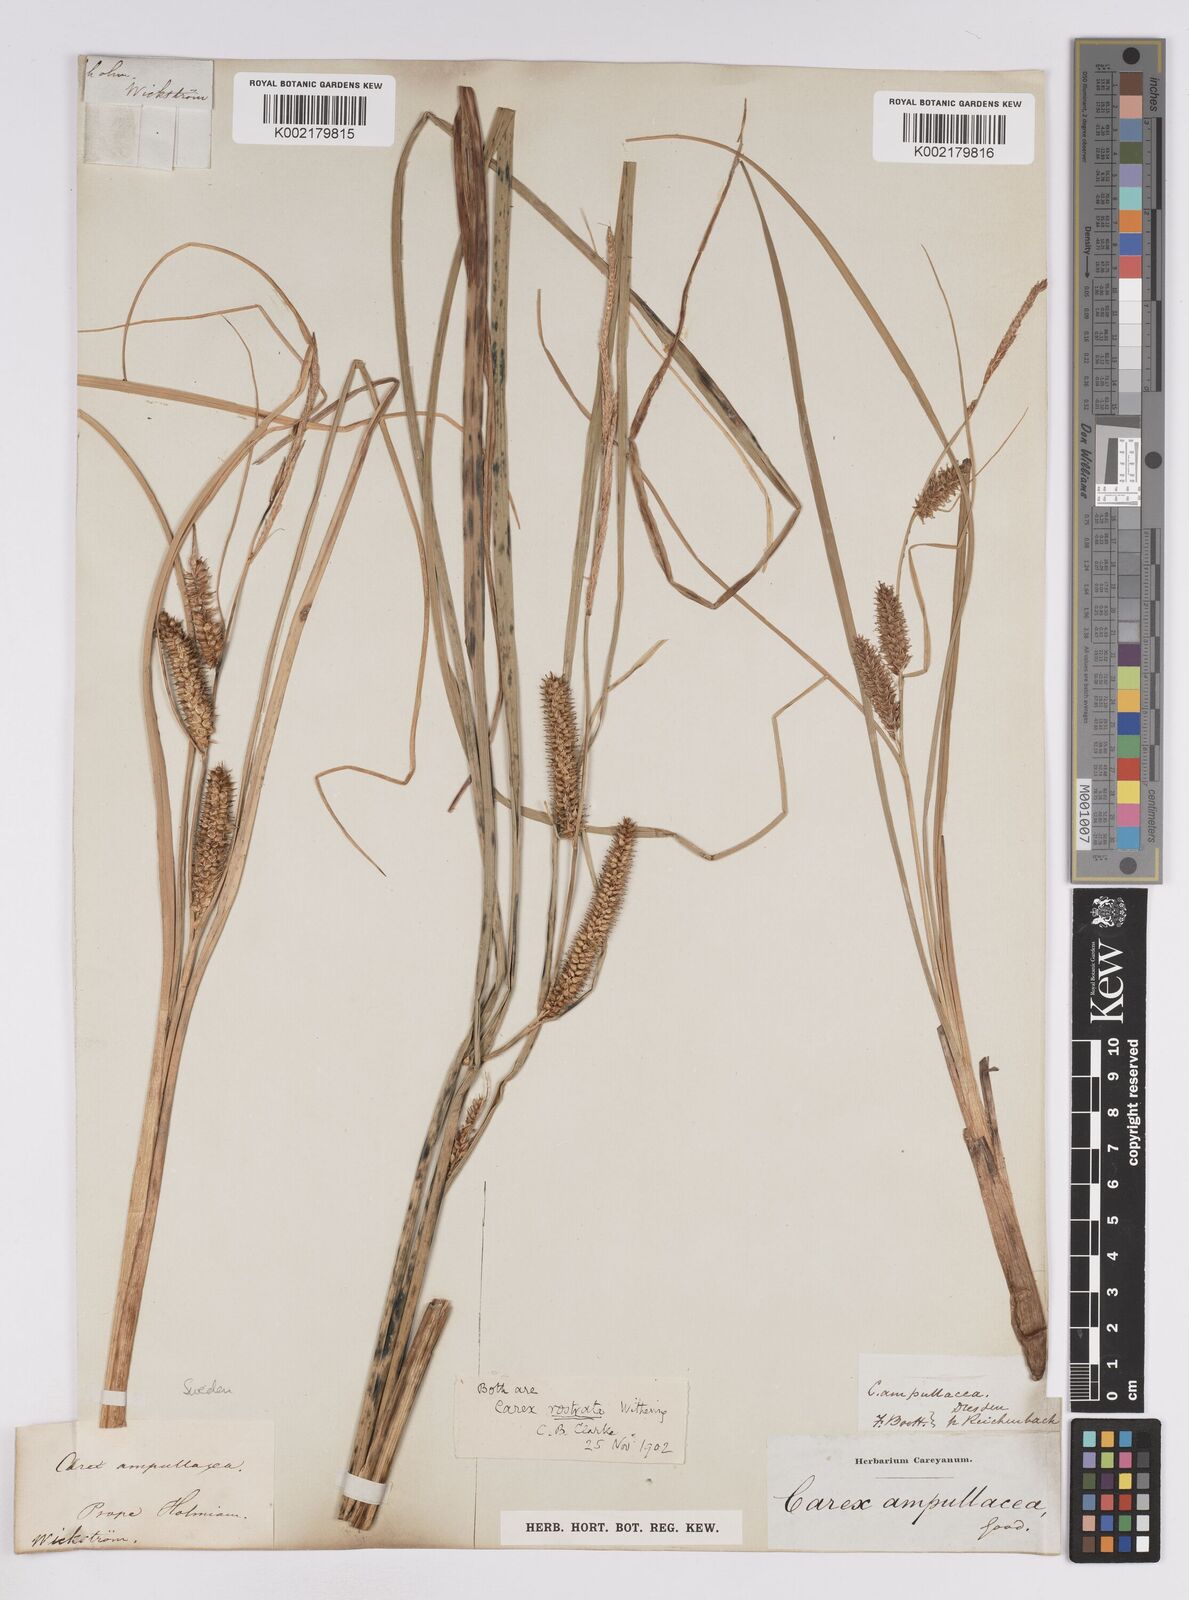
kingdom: Plantae
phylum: Tracheophyta
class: Liliopsida
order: Poales
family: Cyperaceae
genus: Carex
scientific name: Carex rostrata
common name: Bottle sedge
